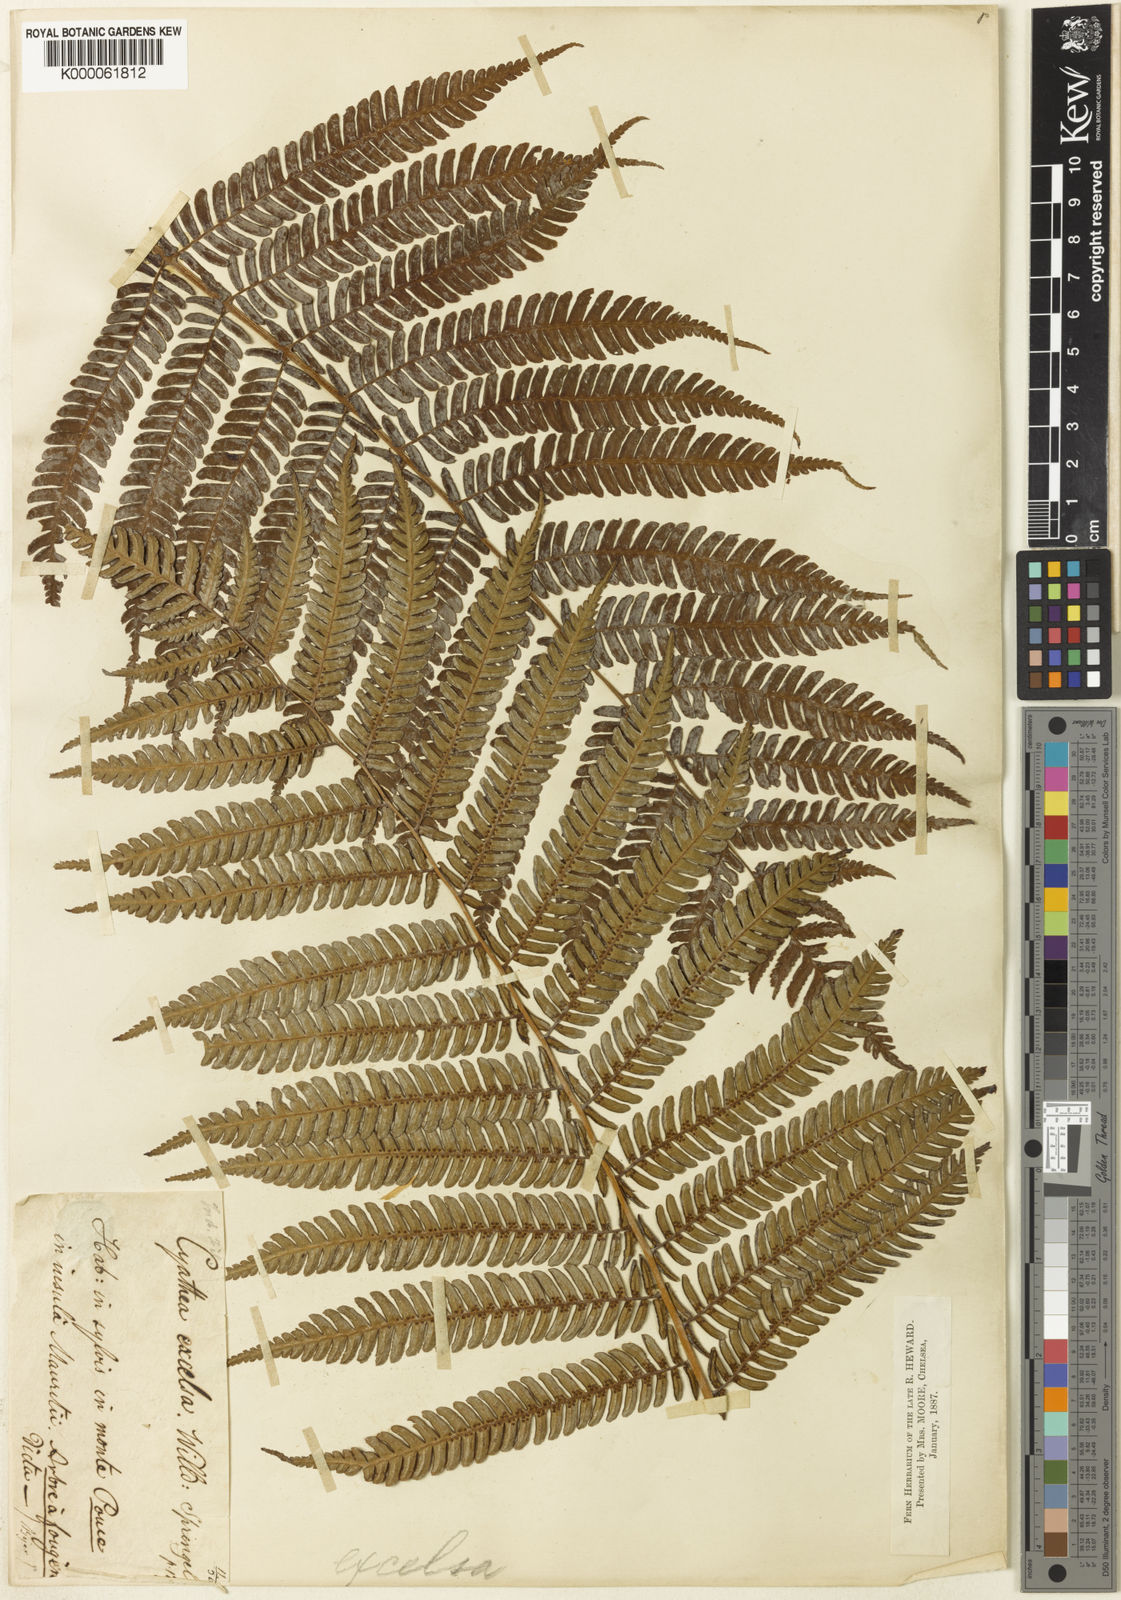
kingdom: Plantae
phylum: Tracheophyta
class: Polypodiopsida
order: Cyatheales
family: Cyatheaceae
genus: Cyathea
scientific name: Cyathea
